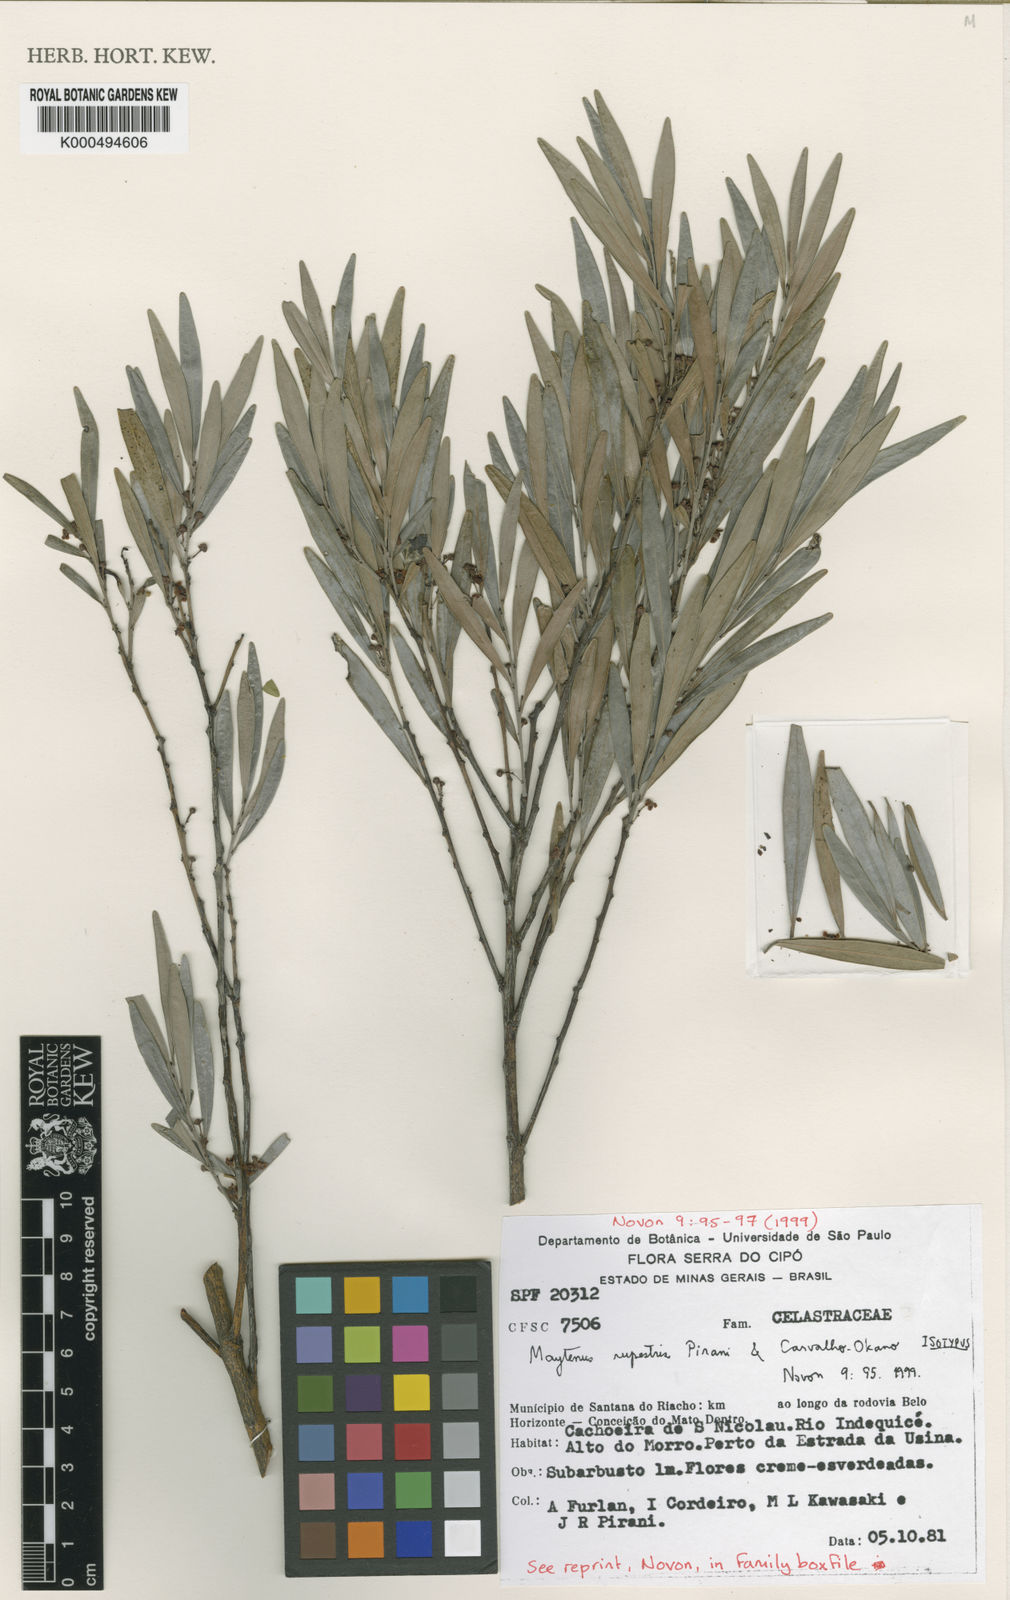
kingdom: Plantae
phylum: Tracheophyta
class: Magnoliopsida
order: Celastrales
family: Celastraceae
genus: Monteverdia
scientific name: Monteverdia rupestris
